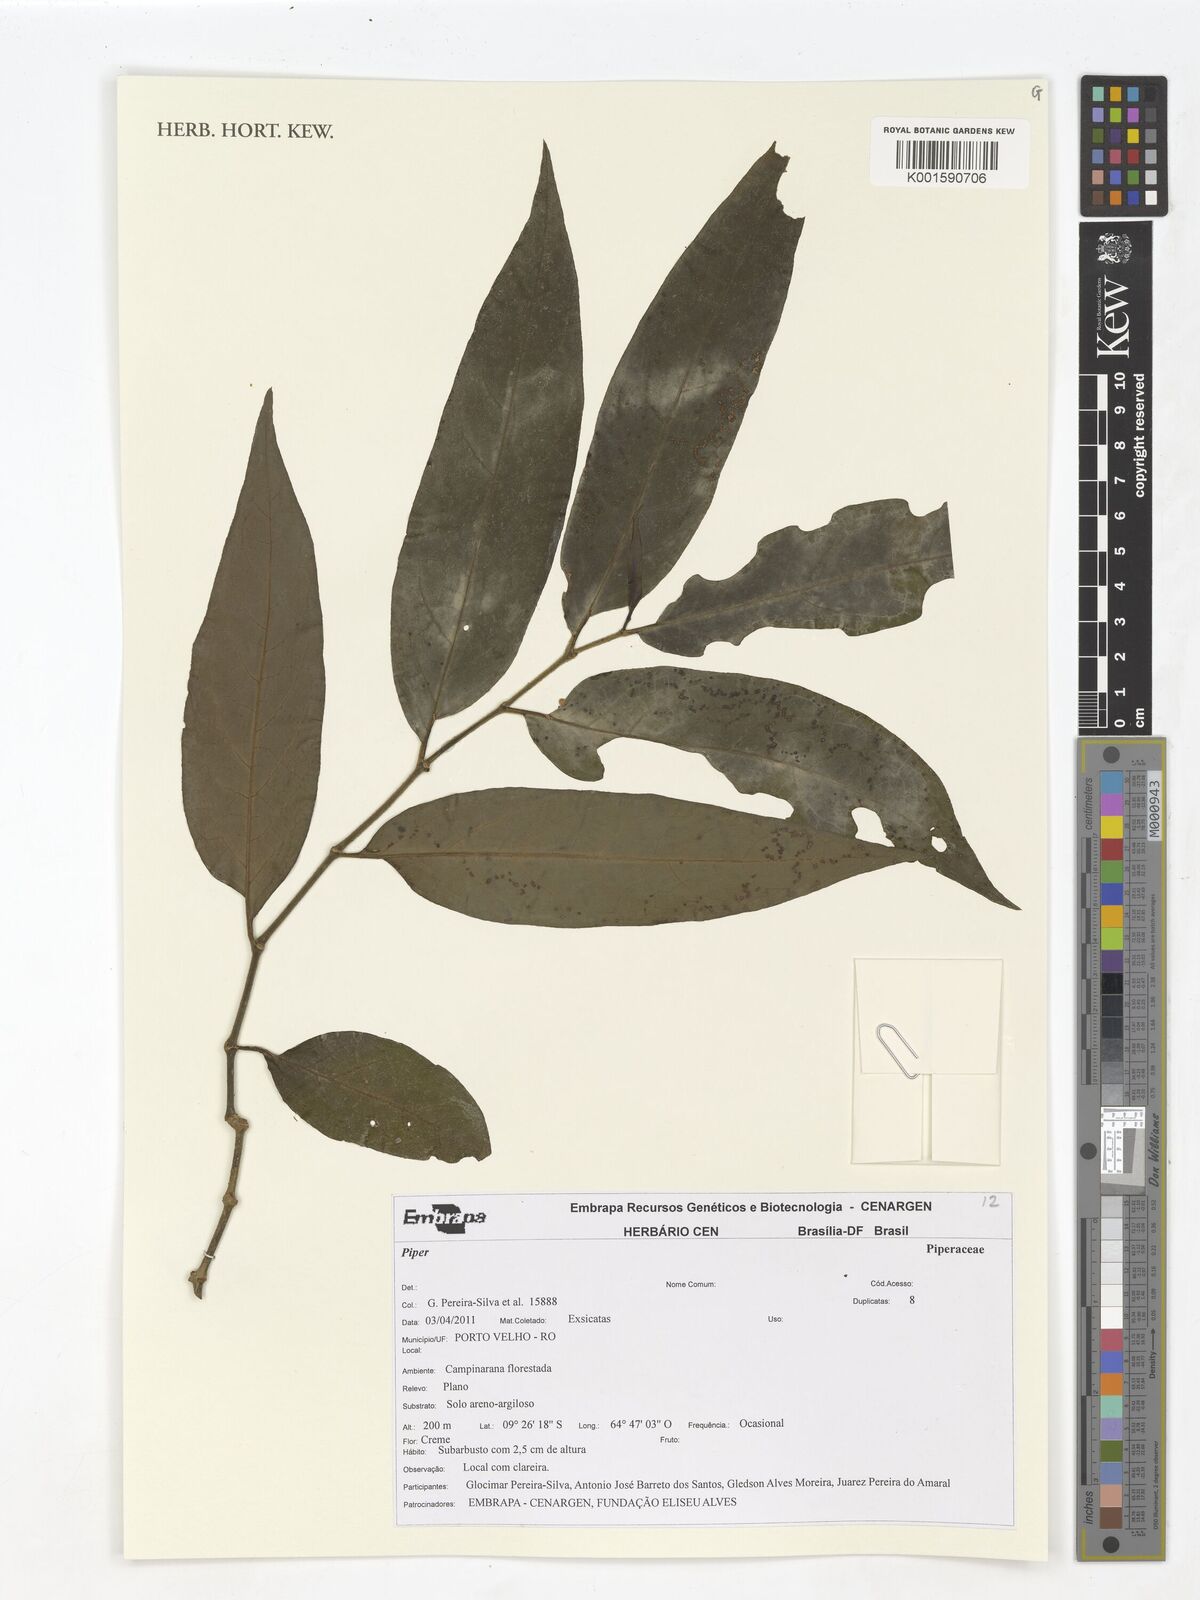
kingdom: Plantae
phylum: Tracheophyta
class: Magnoliopsida
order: Piperales
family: Piperaceae
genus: Piper
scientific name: Piper
